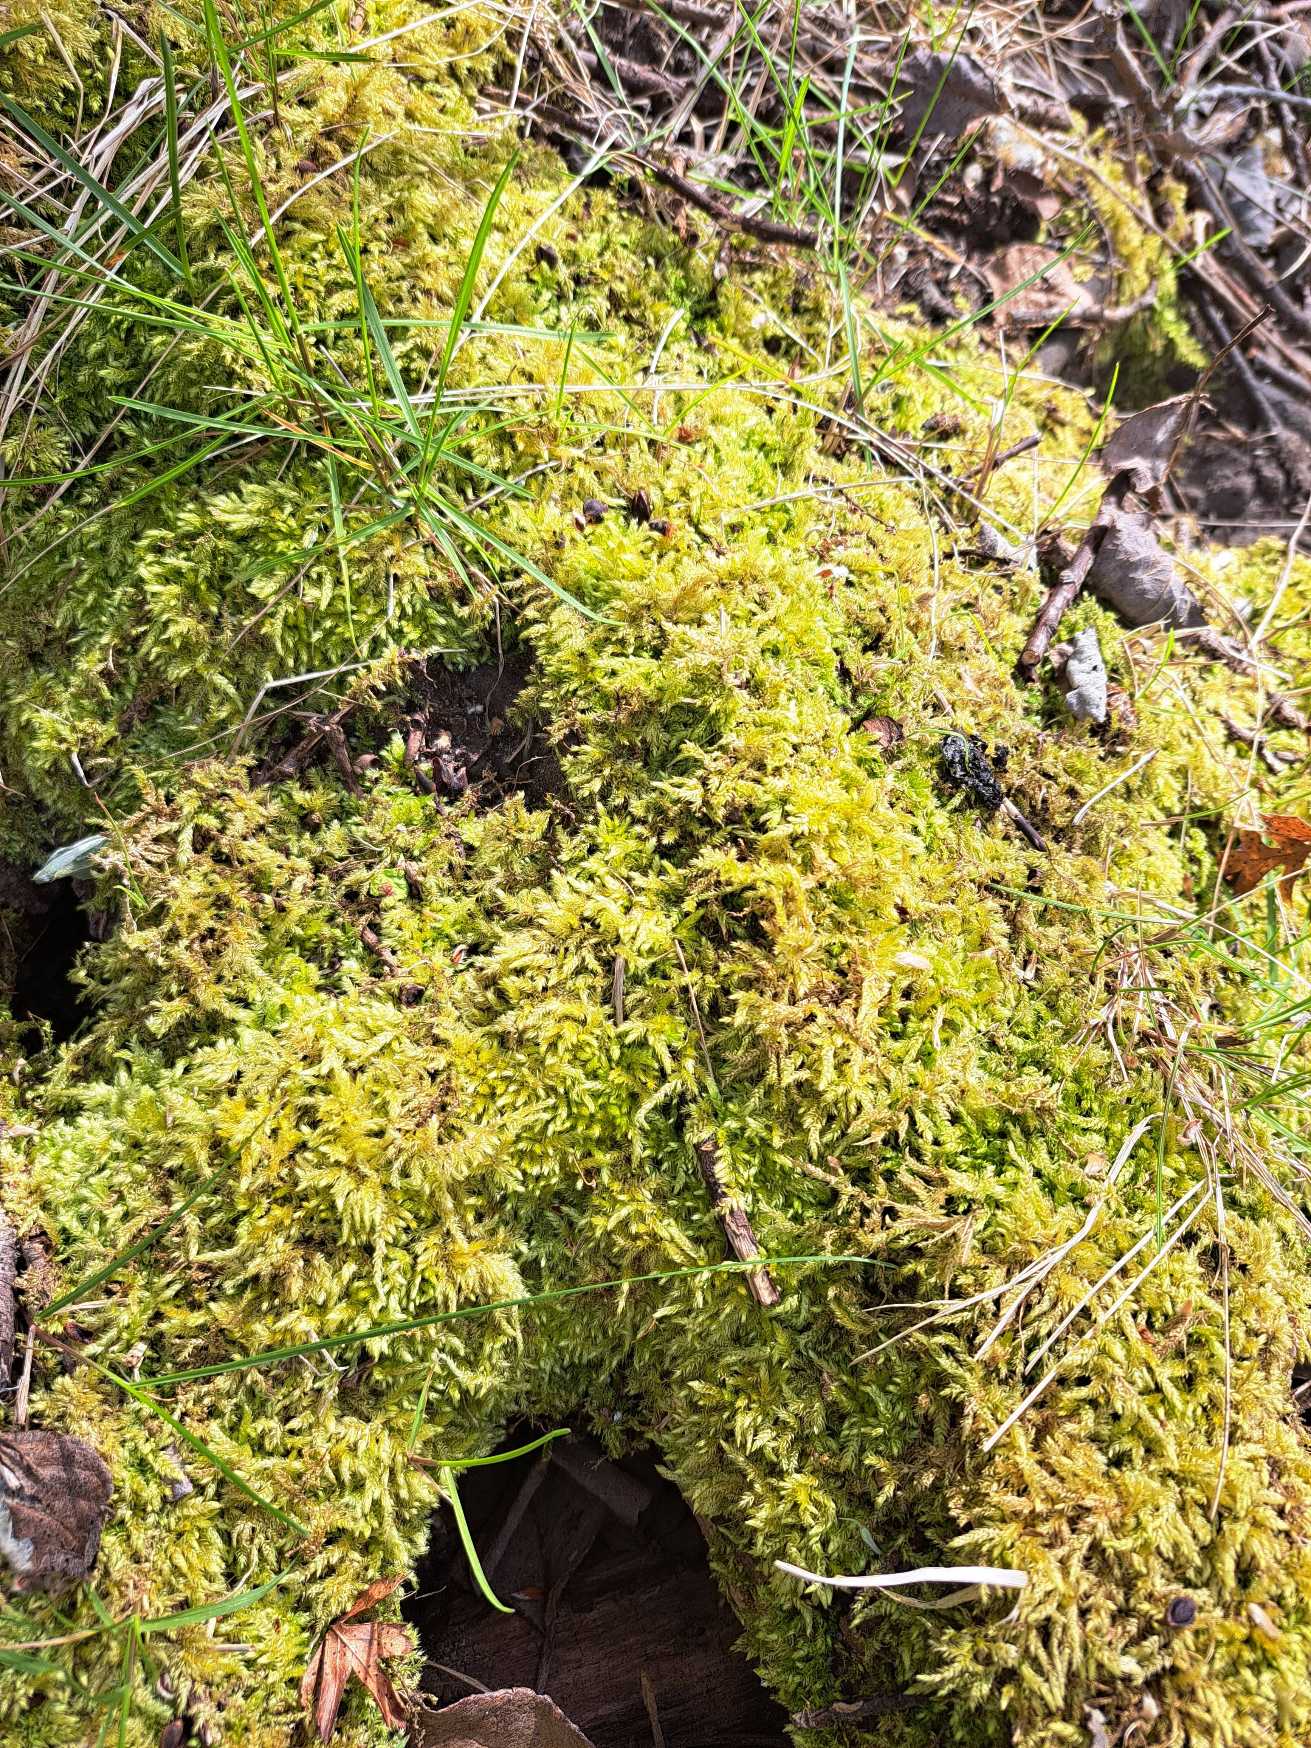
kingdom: Plantae
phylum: Bryophyta
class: Bryopsida
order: Hypnales
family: Brachytheciaceae
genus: Brachythecium
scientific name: Brachythecium rutabulum
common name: Almindelig kortkapsel
